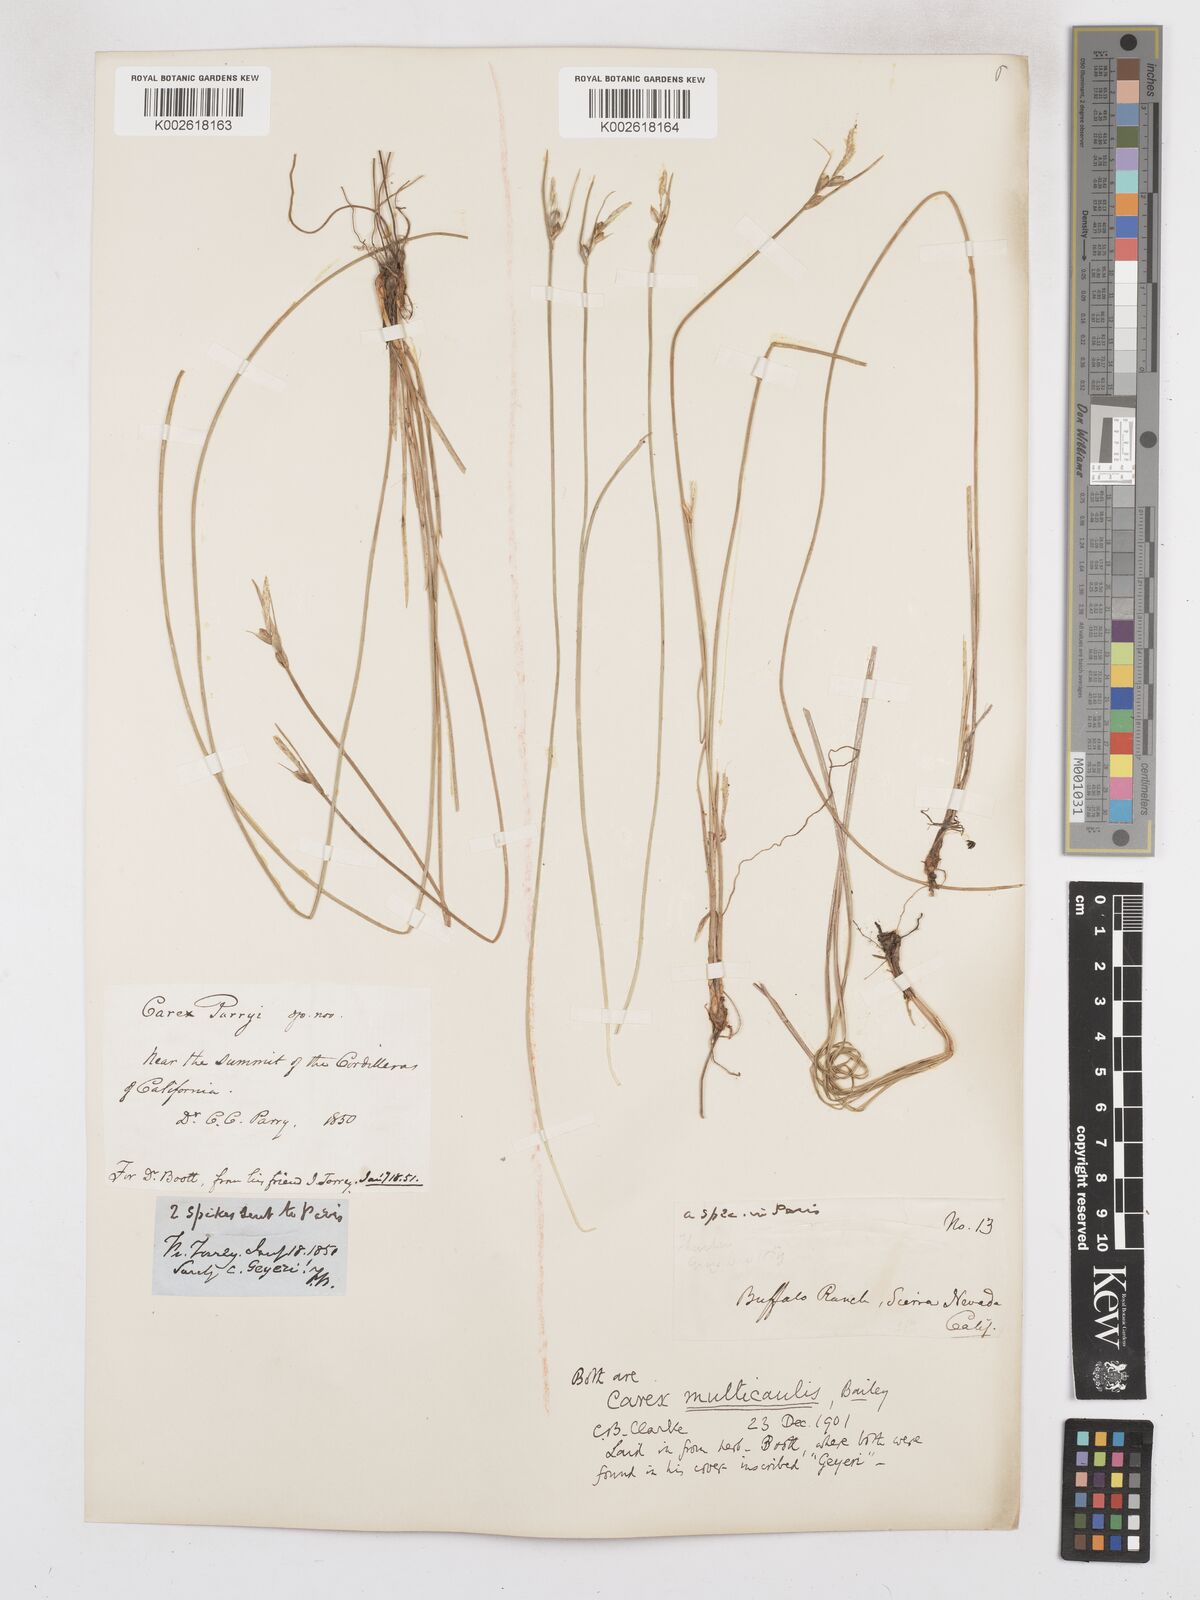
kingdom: Plantae
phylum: Tracheophyta
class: Liliopsida
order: Poales
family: Cyperaceae
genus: Carex
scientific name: Carex multicaulis
